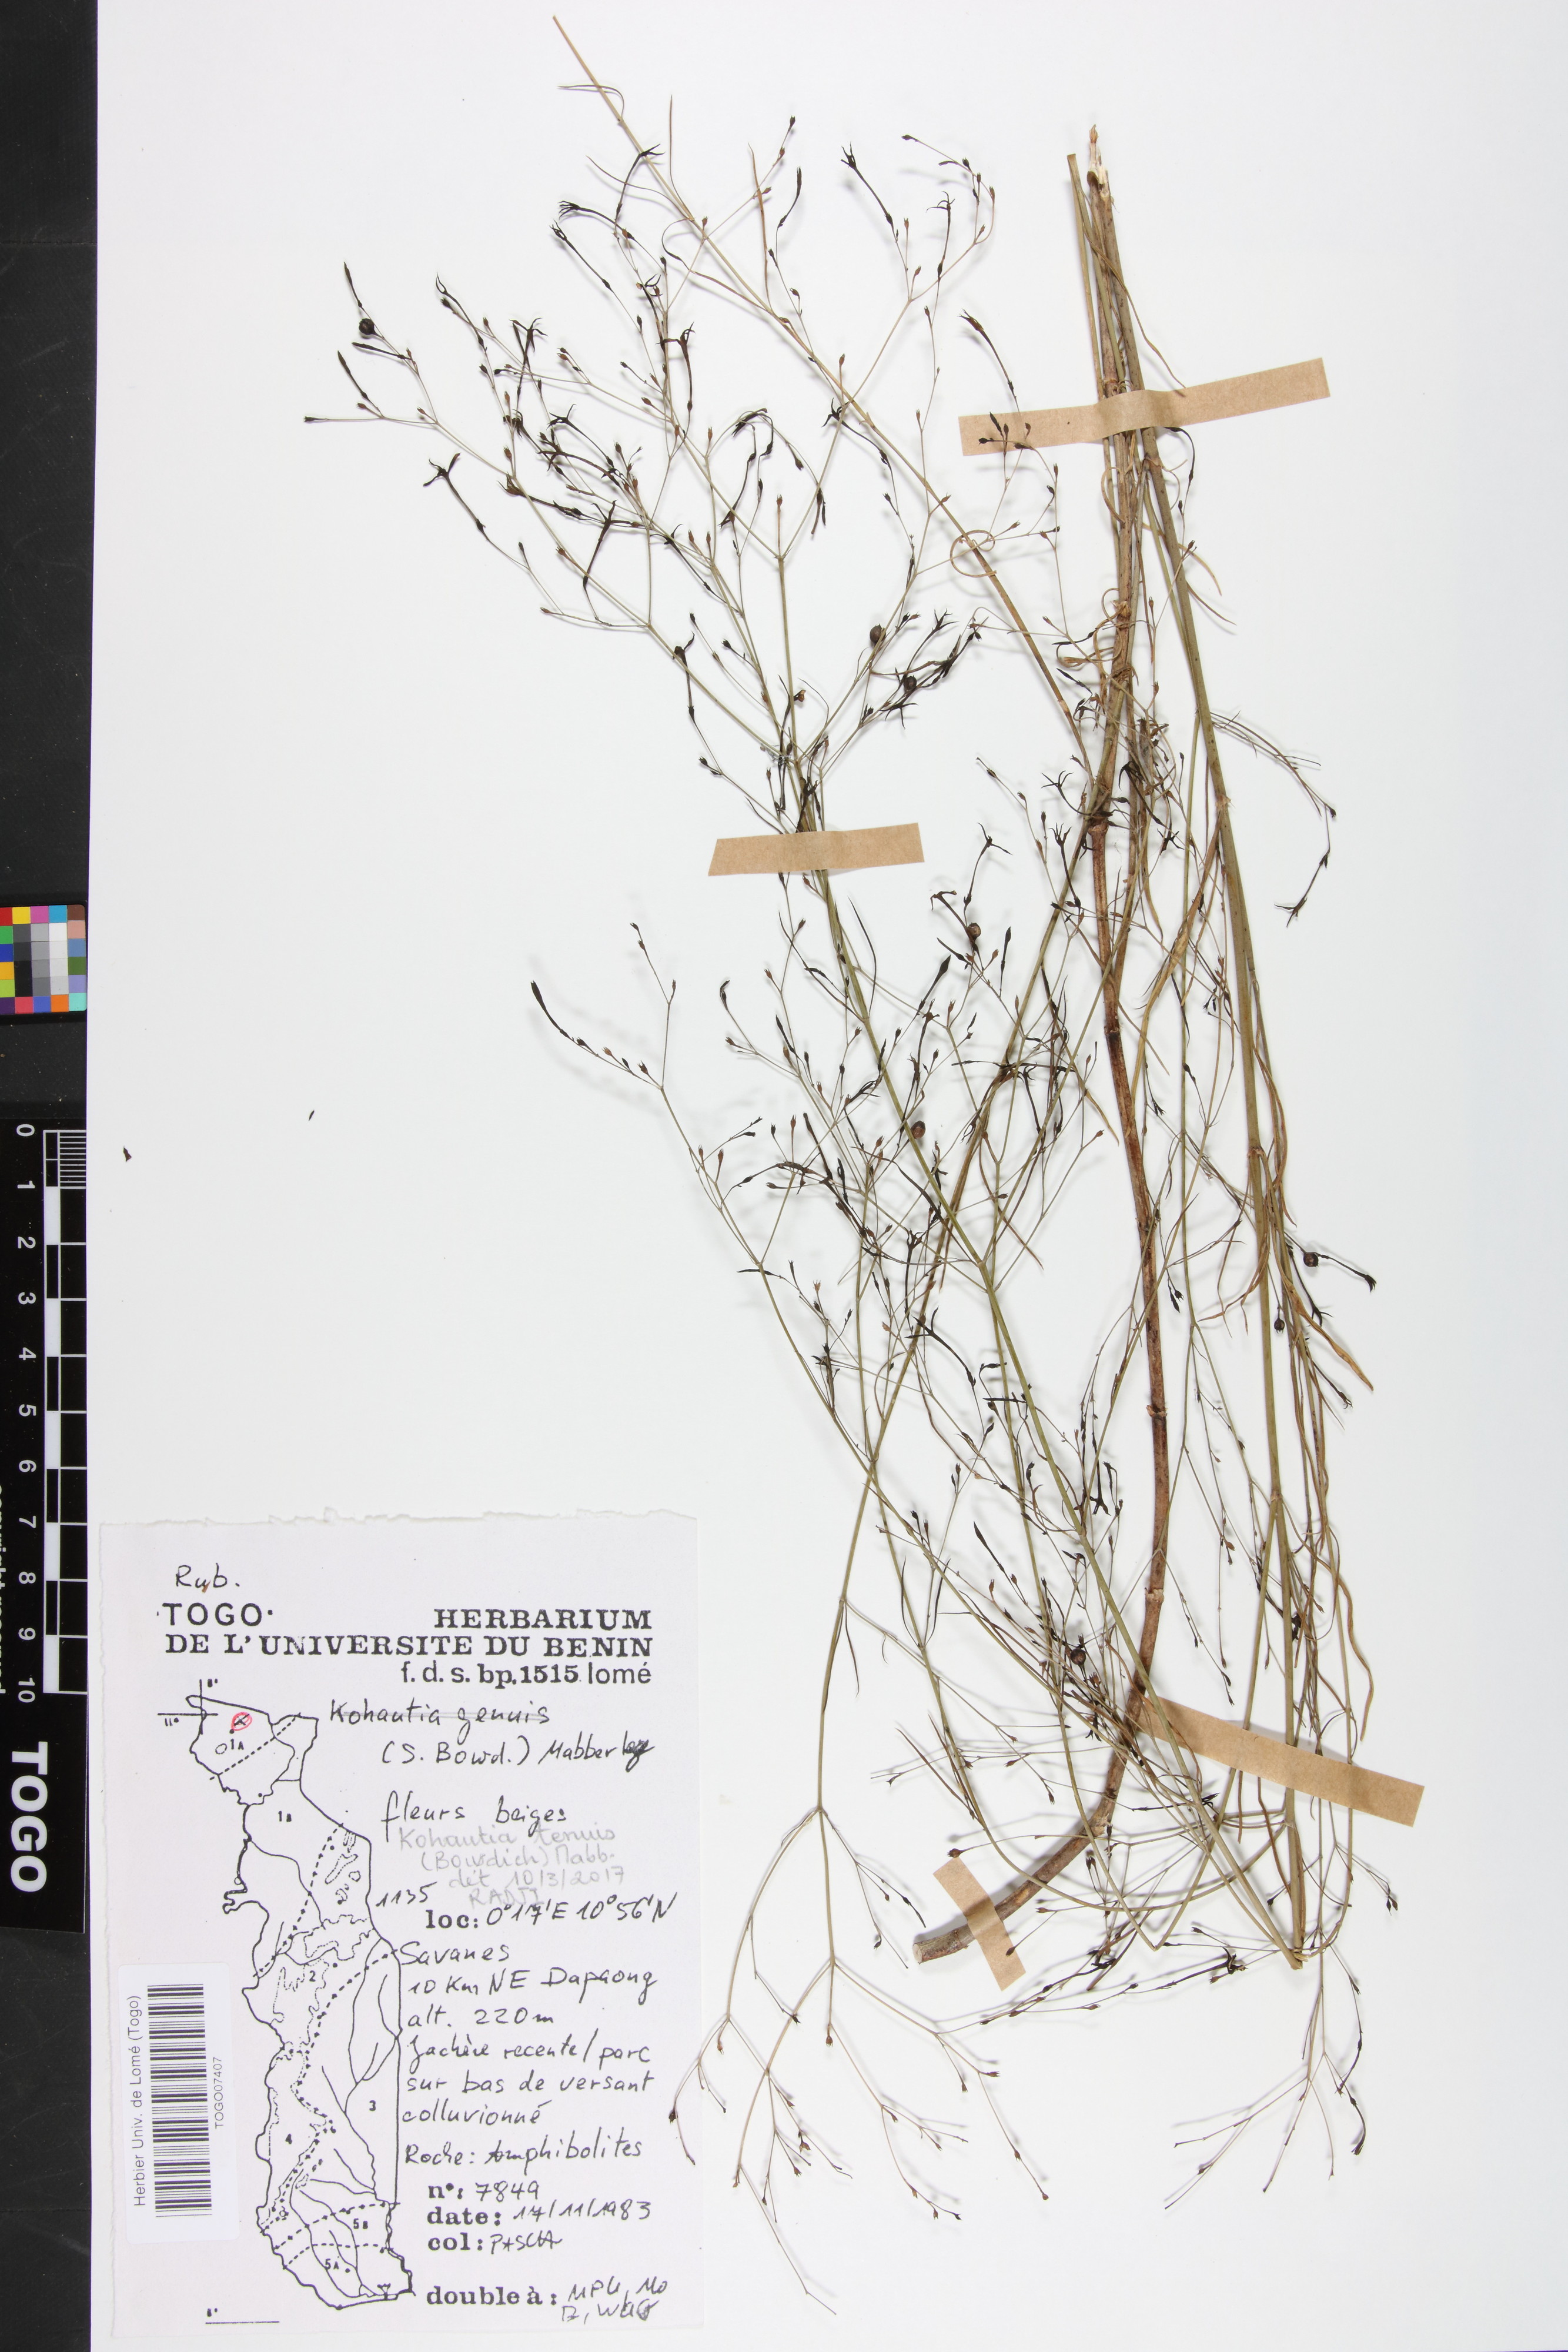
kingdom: Plantae
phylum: Tracheophyta
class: Magnoliopsida
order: Gentianales
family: Rubiaceae
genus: Kohautia
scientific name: Kohautia
